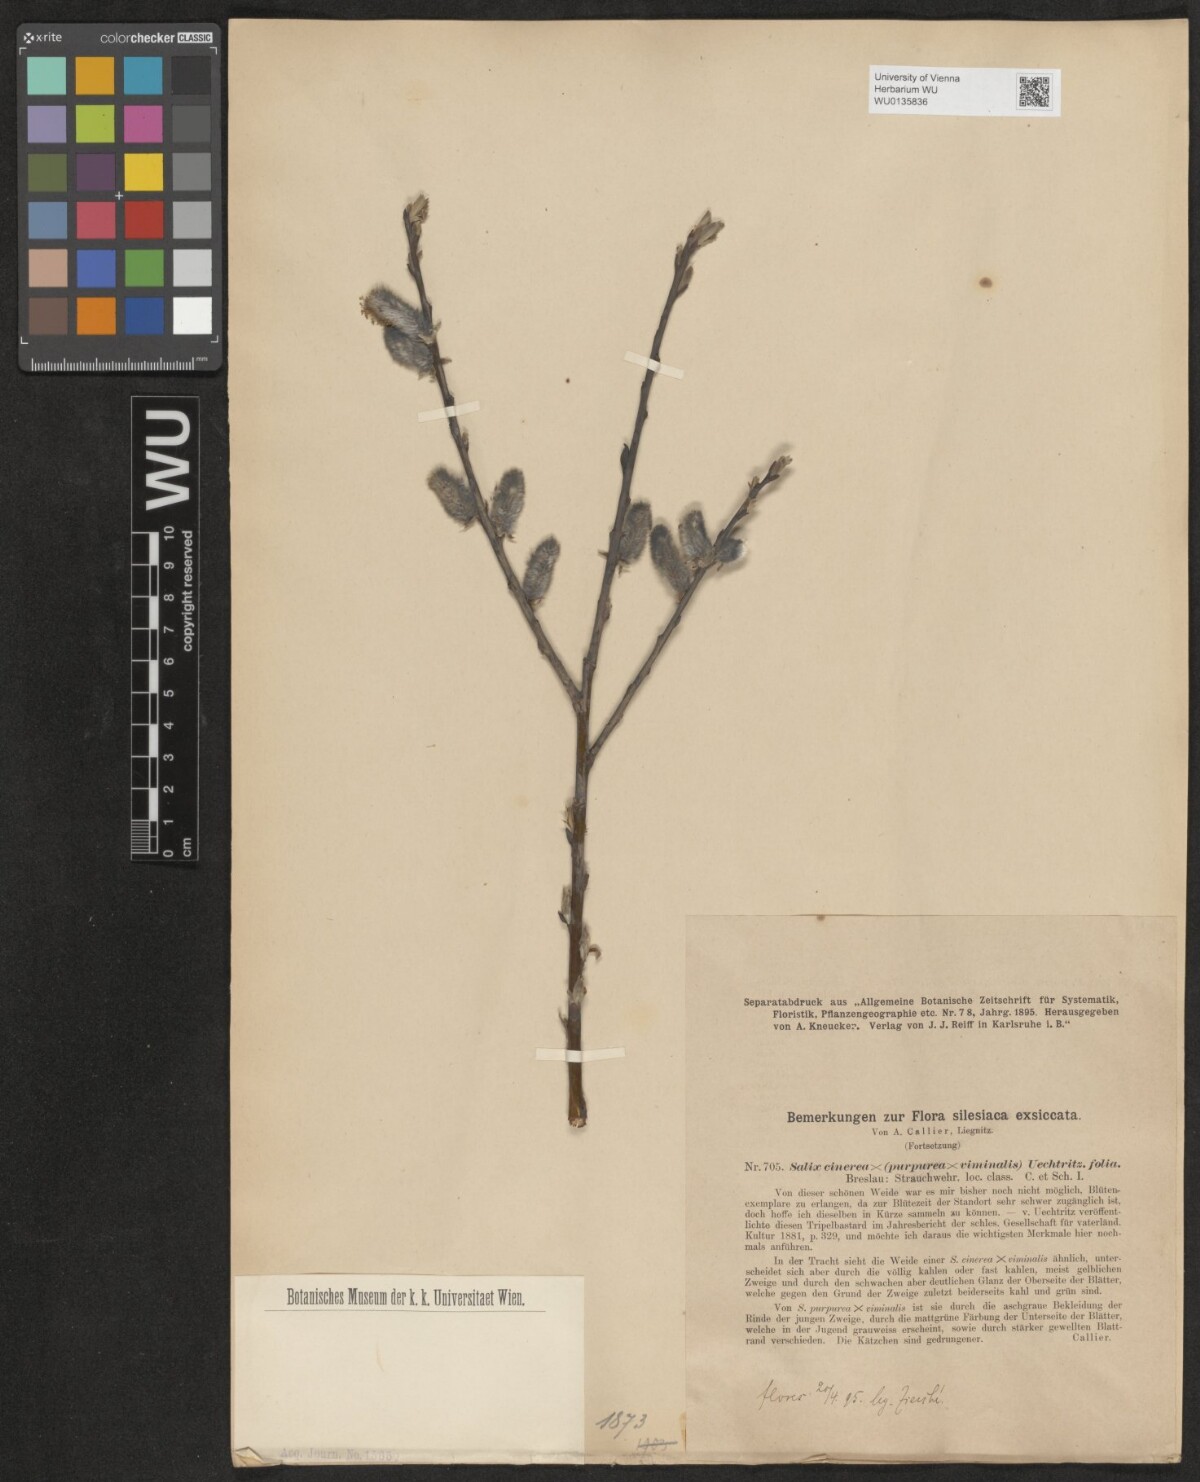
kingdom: Plantae
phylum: Tracheophyta
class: Magnoliopsida
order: Malpighiales
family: Salicaceae
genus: Salix
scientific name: Salix
